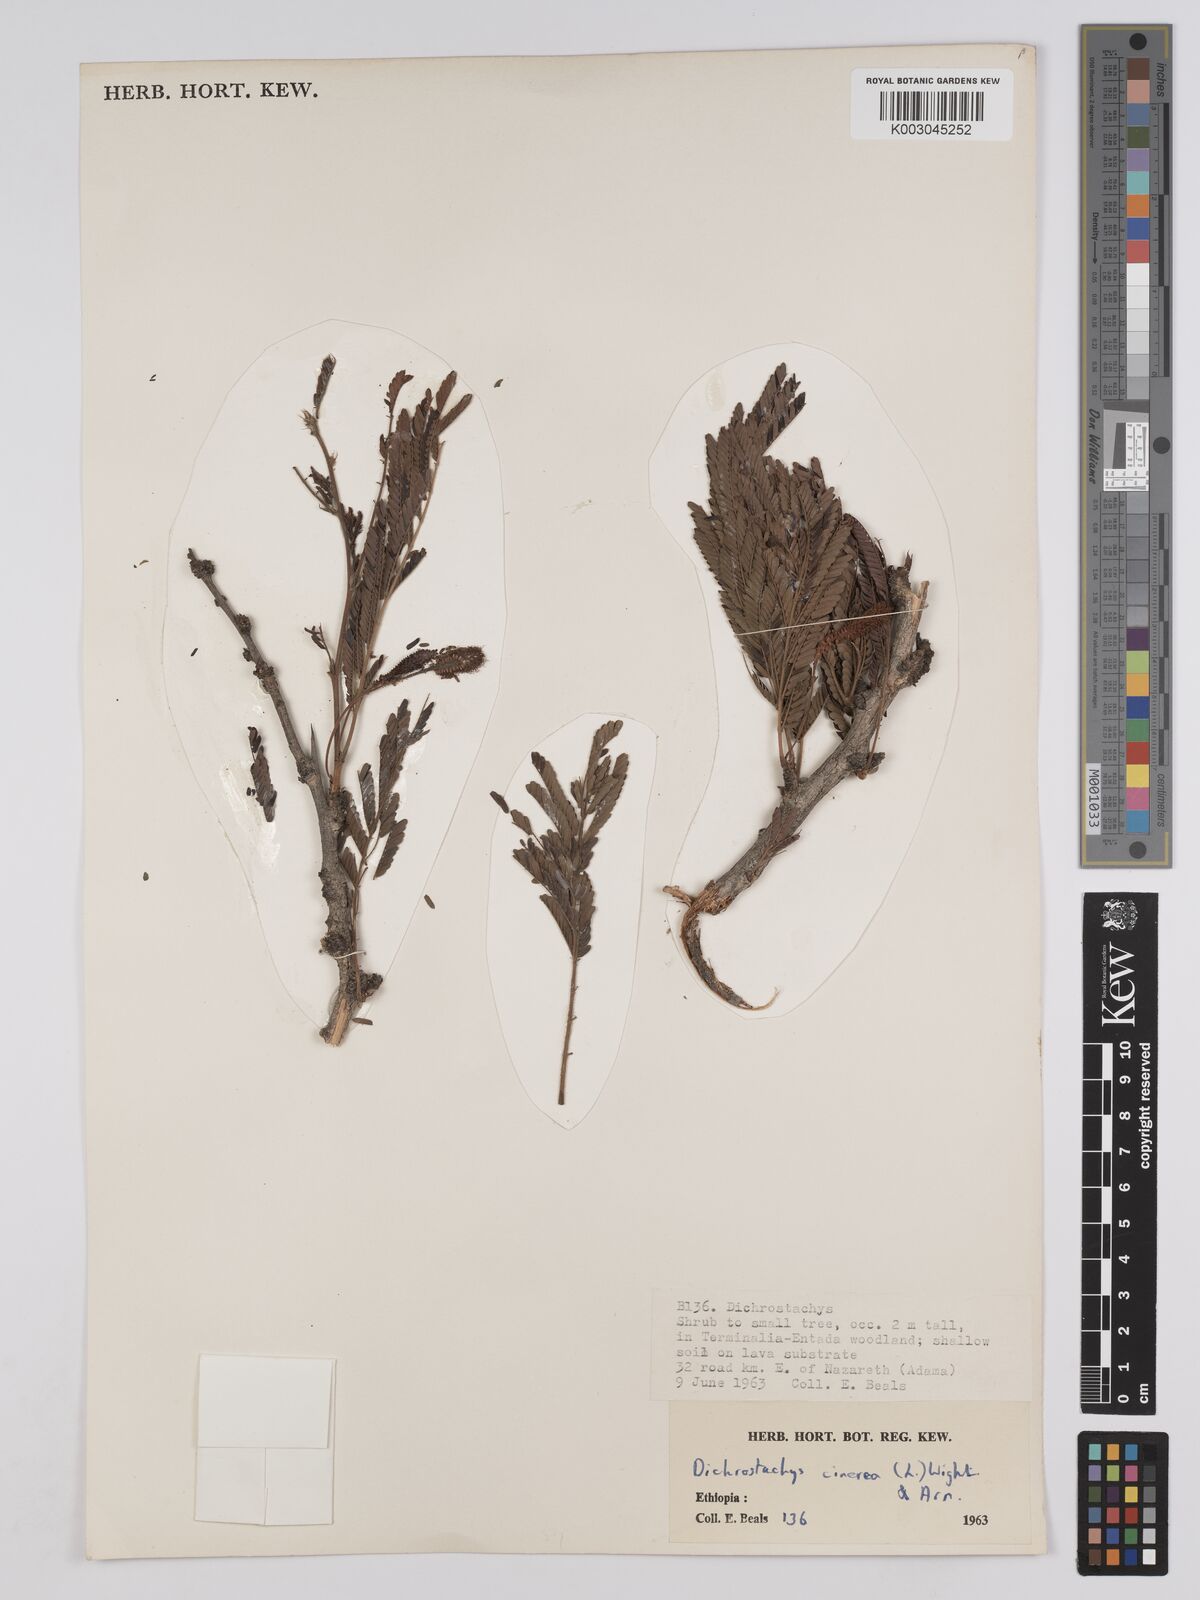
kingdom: Plantae
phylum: Tracheophyta
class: Magnoliopsida
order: Fabales
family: Fabaceae
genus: Dichrostachys
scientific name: Dichrostachys cinerea
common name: Sicklebush
